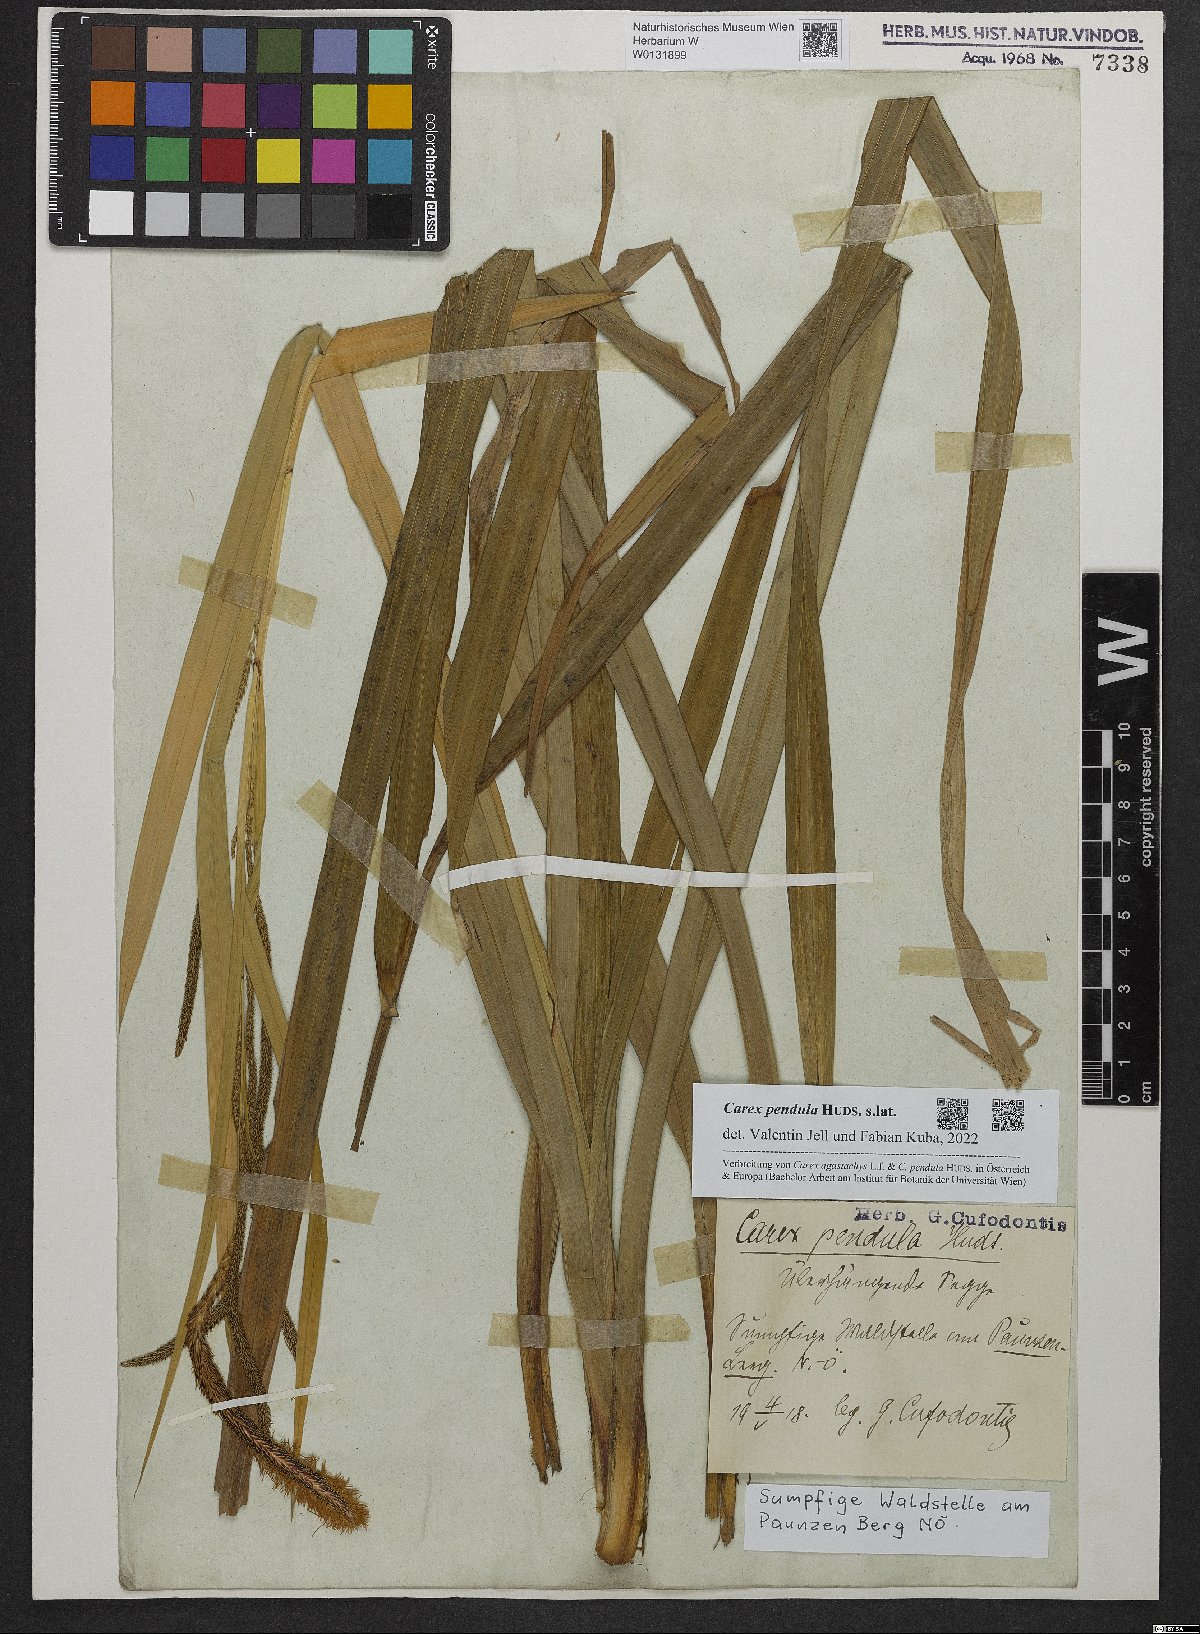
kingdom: Plantae
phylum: Tracheophyta
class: Liliopsida
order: Poales
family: Cyperaceae
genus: Carex
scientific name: Carex pendula
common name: Pendulous sedge
